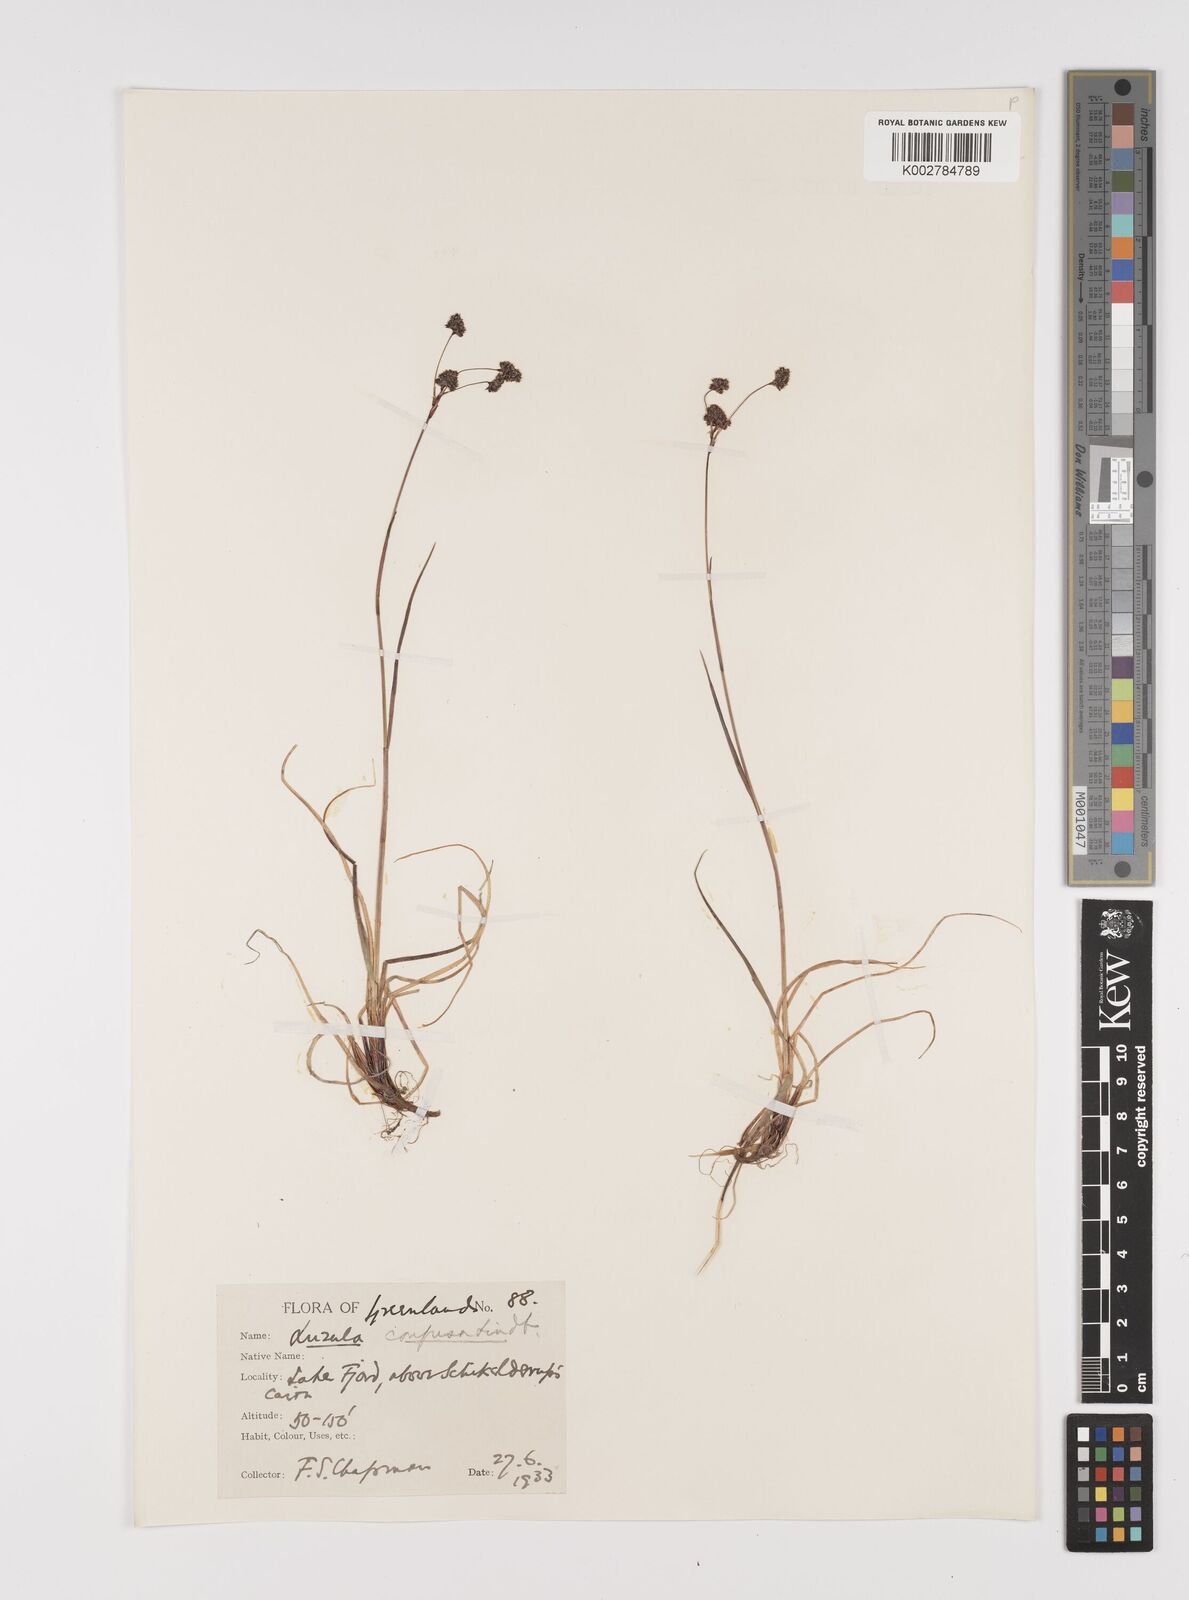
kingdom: Plantae
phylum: Tracheophyta
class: Liliopsida
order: Poales
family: Juncaceae
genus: Luzula
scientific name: Luzula confusa
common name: Northern wood rush
